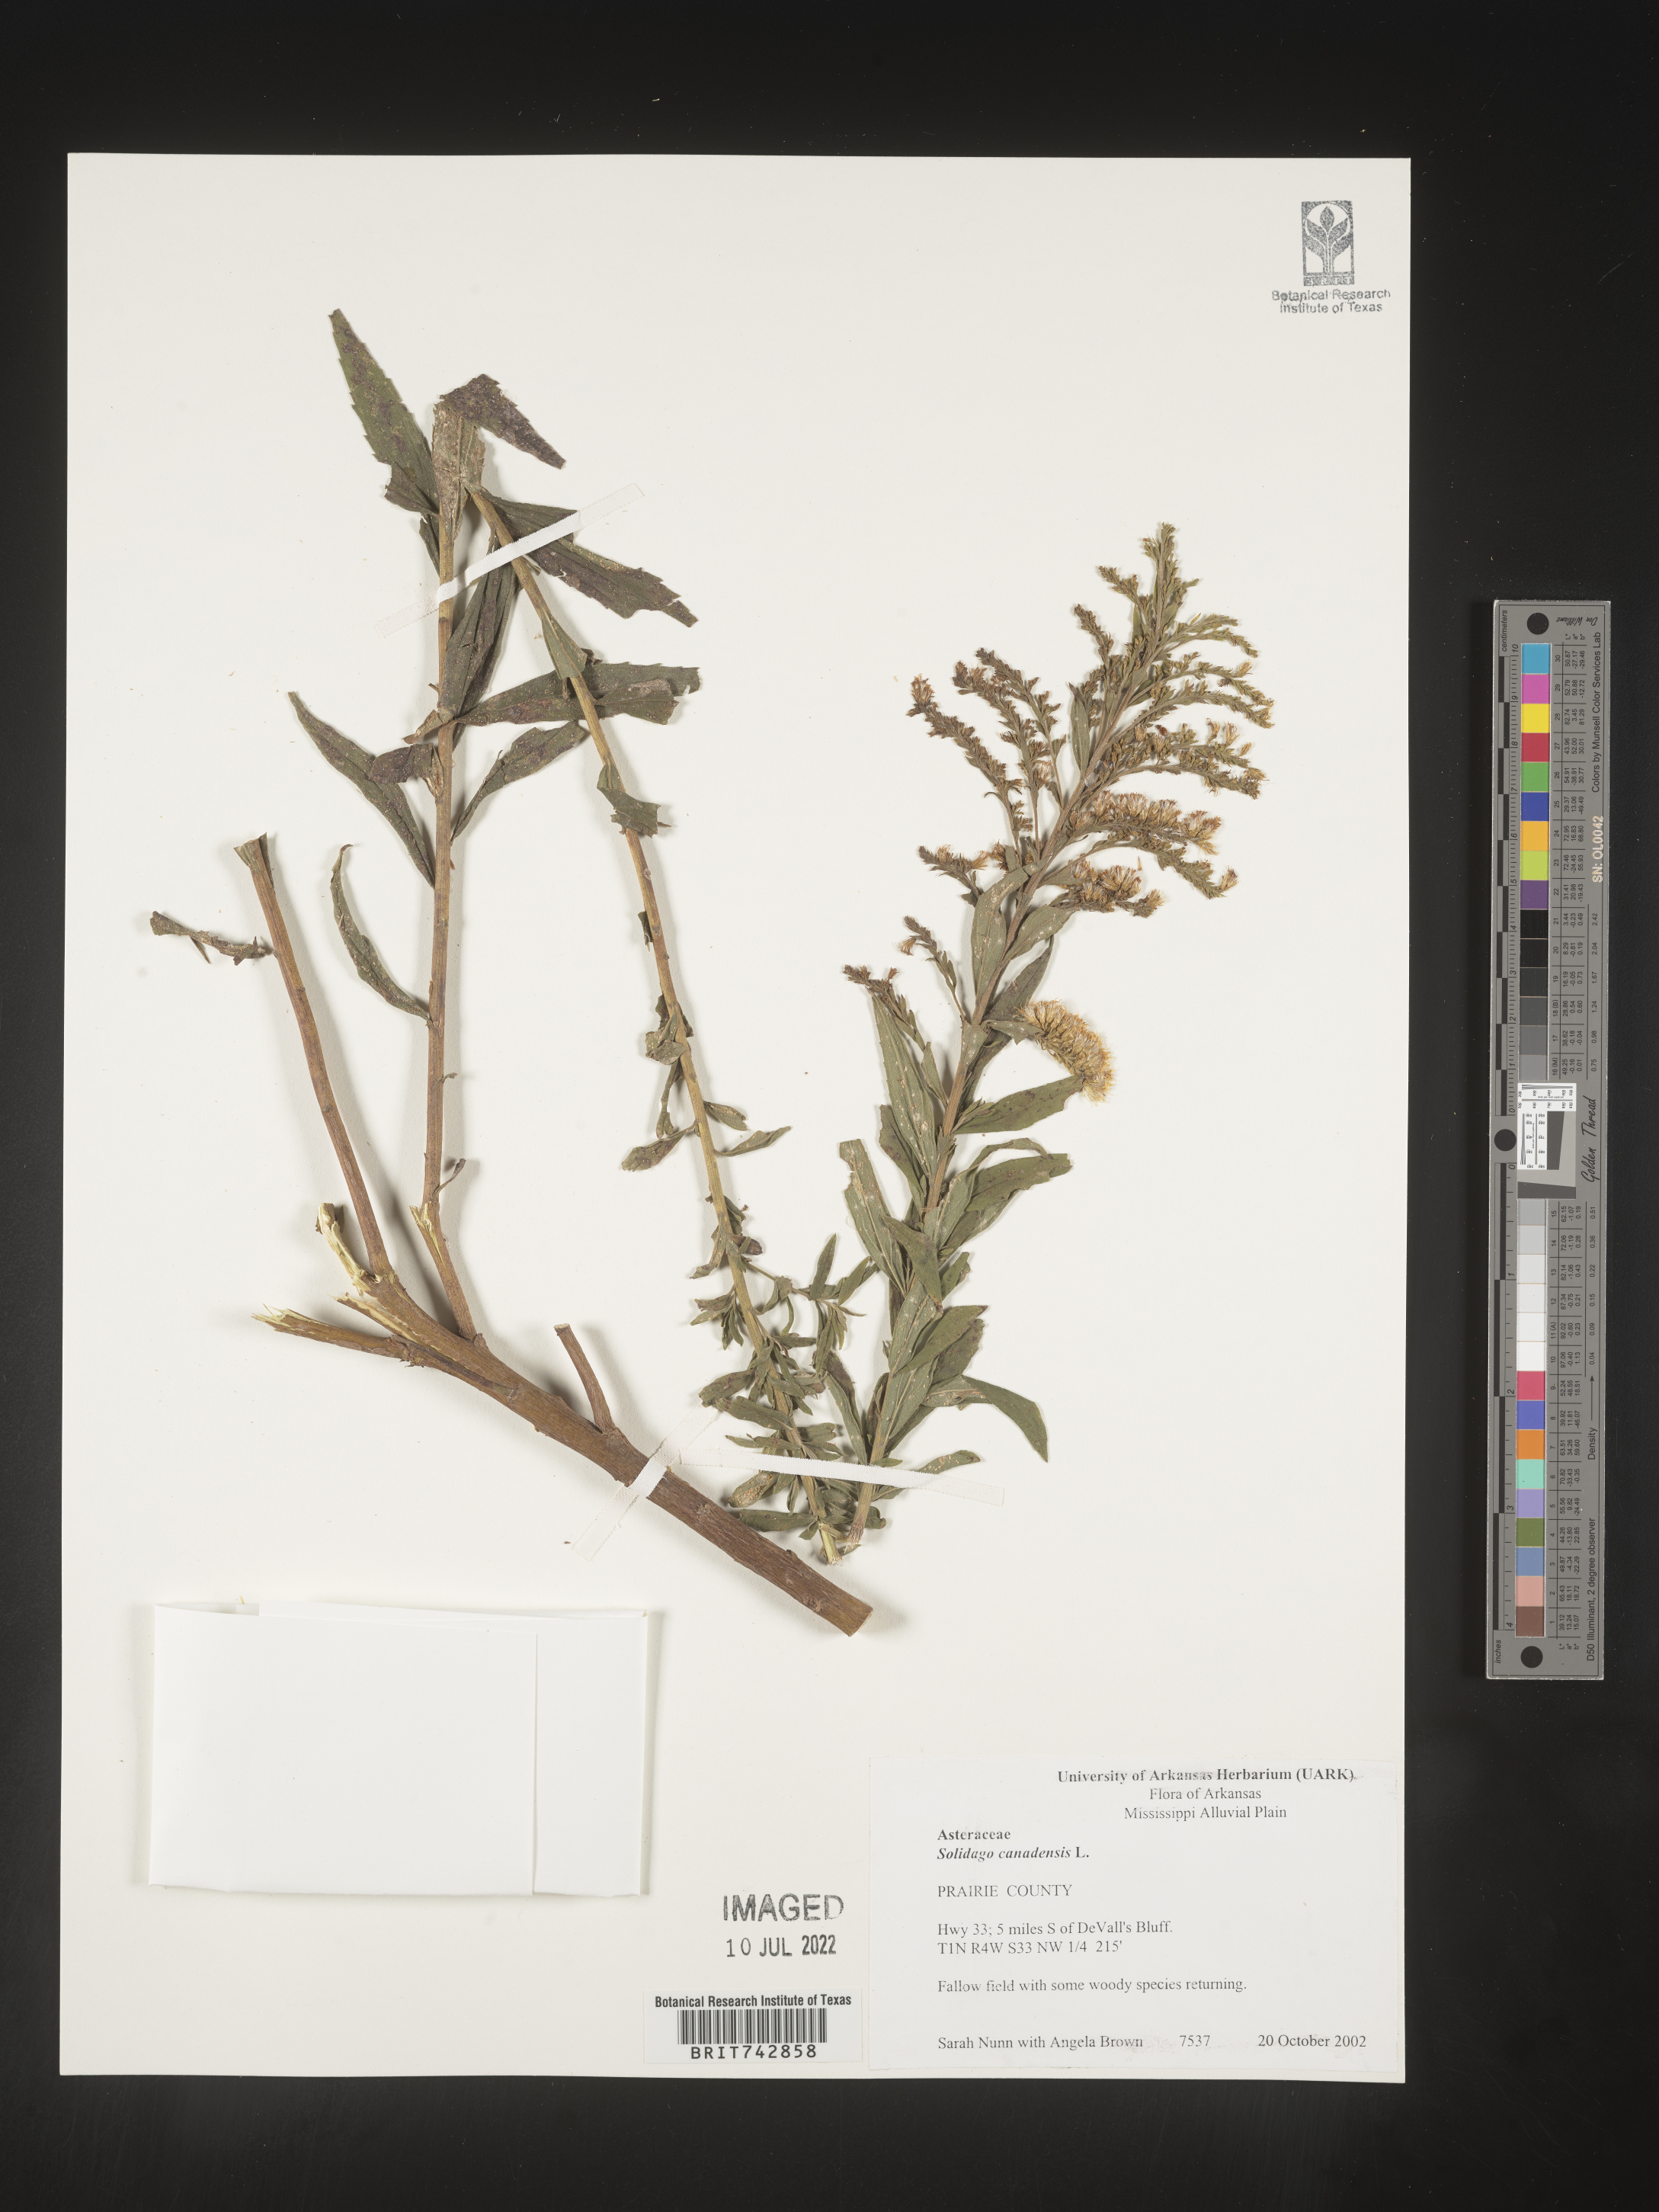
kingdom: Plantae
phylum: Tracheophyta
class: Magnoliopsida
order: Asterales
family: Asteraceae
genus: Solidago
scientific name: Solidago altissima
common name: Late goldenrod
